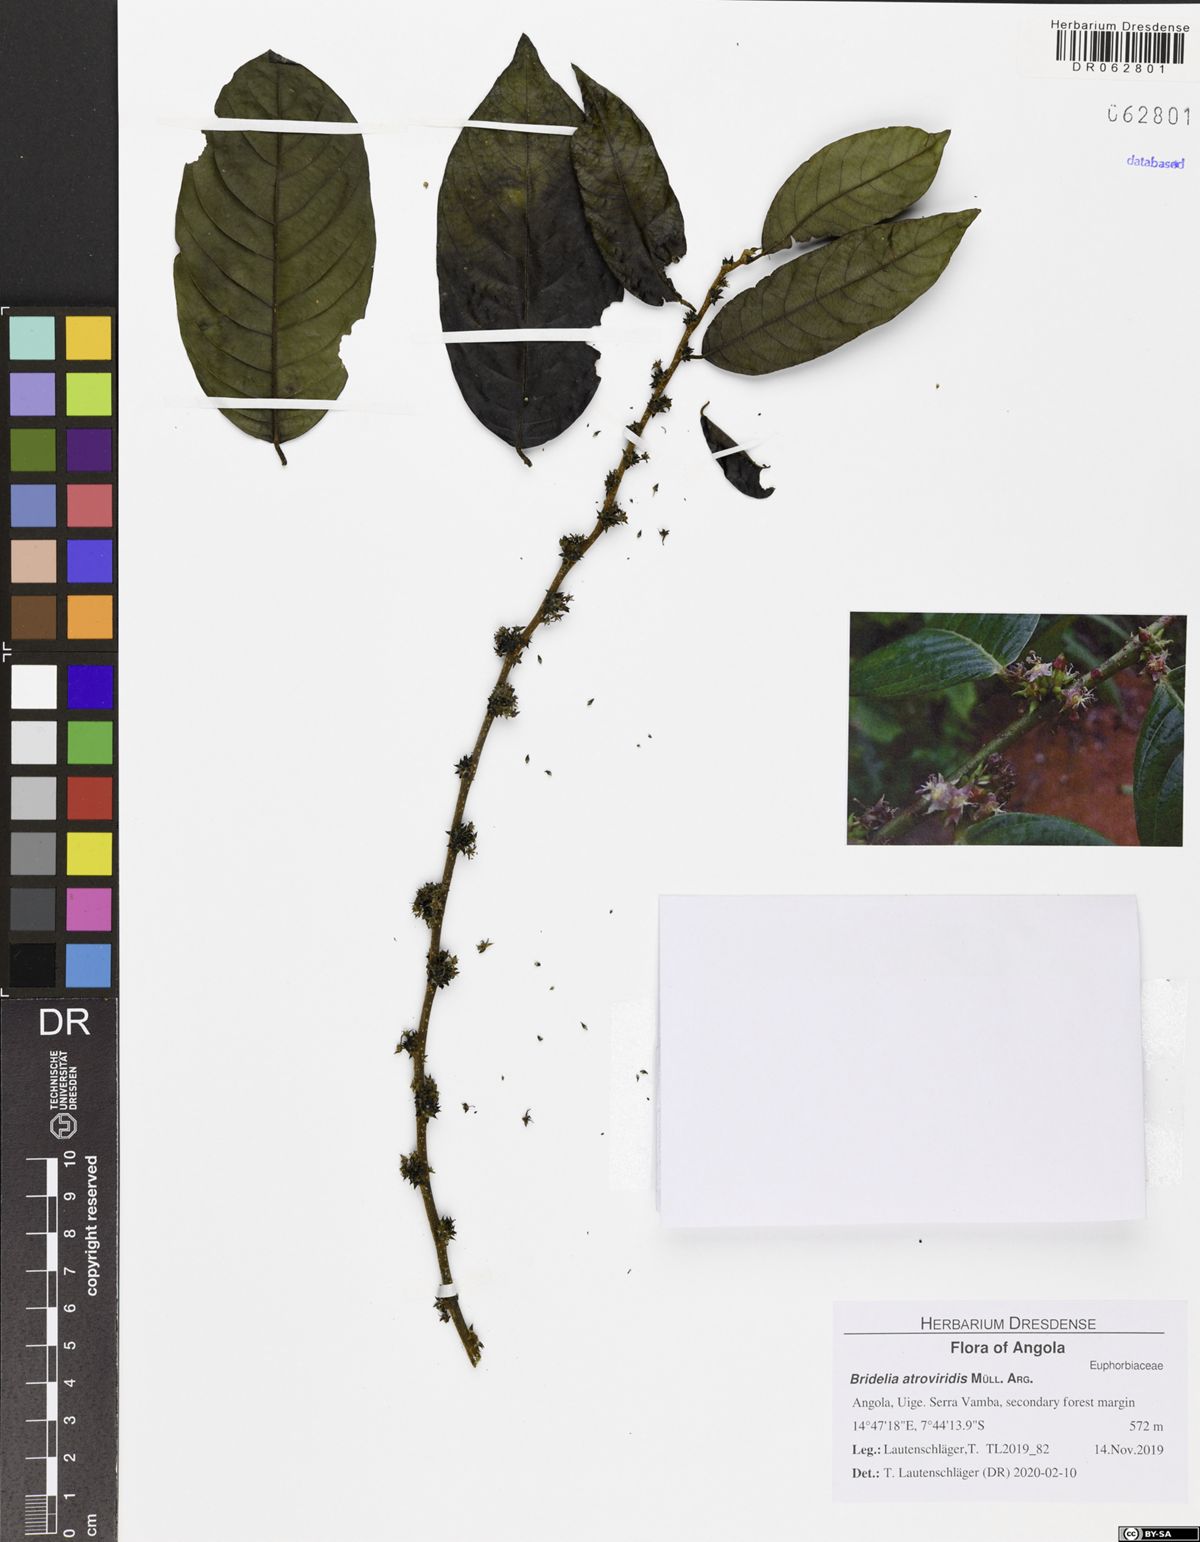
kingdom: Plantae
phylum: Tracheophyta
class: Magnoliopsida
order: Malpighiales
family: Phyllanthaceae
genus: Bridelia
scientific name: Bridelia atroviridis
